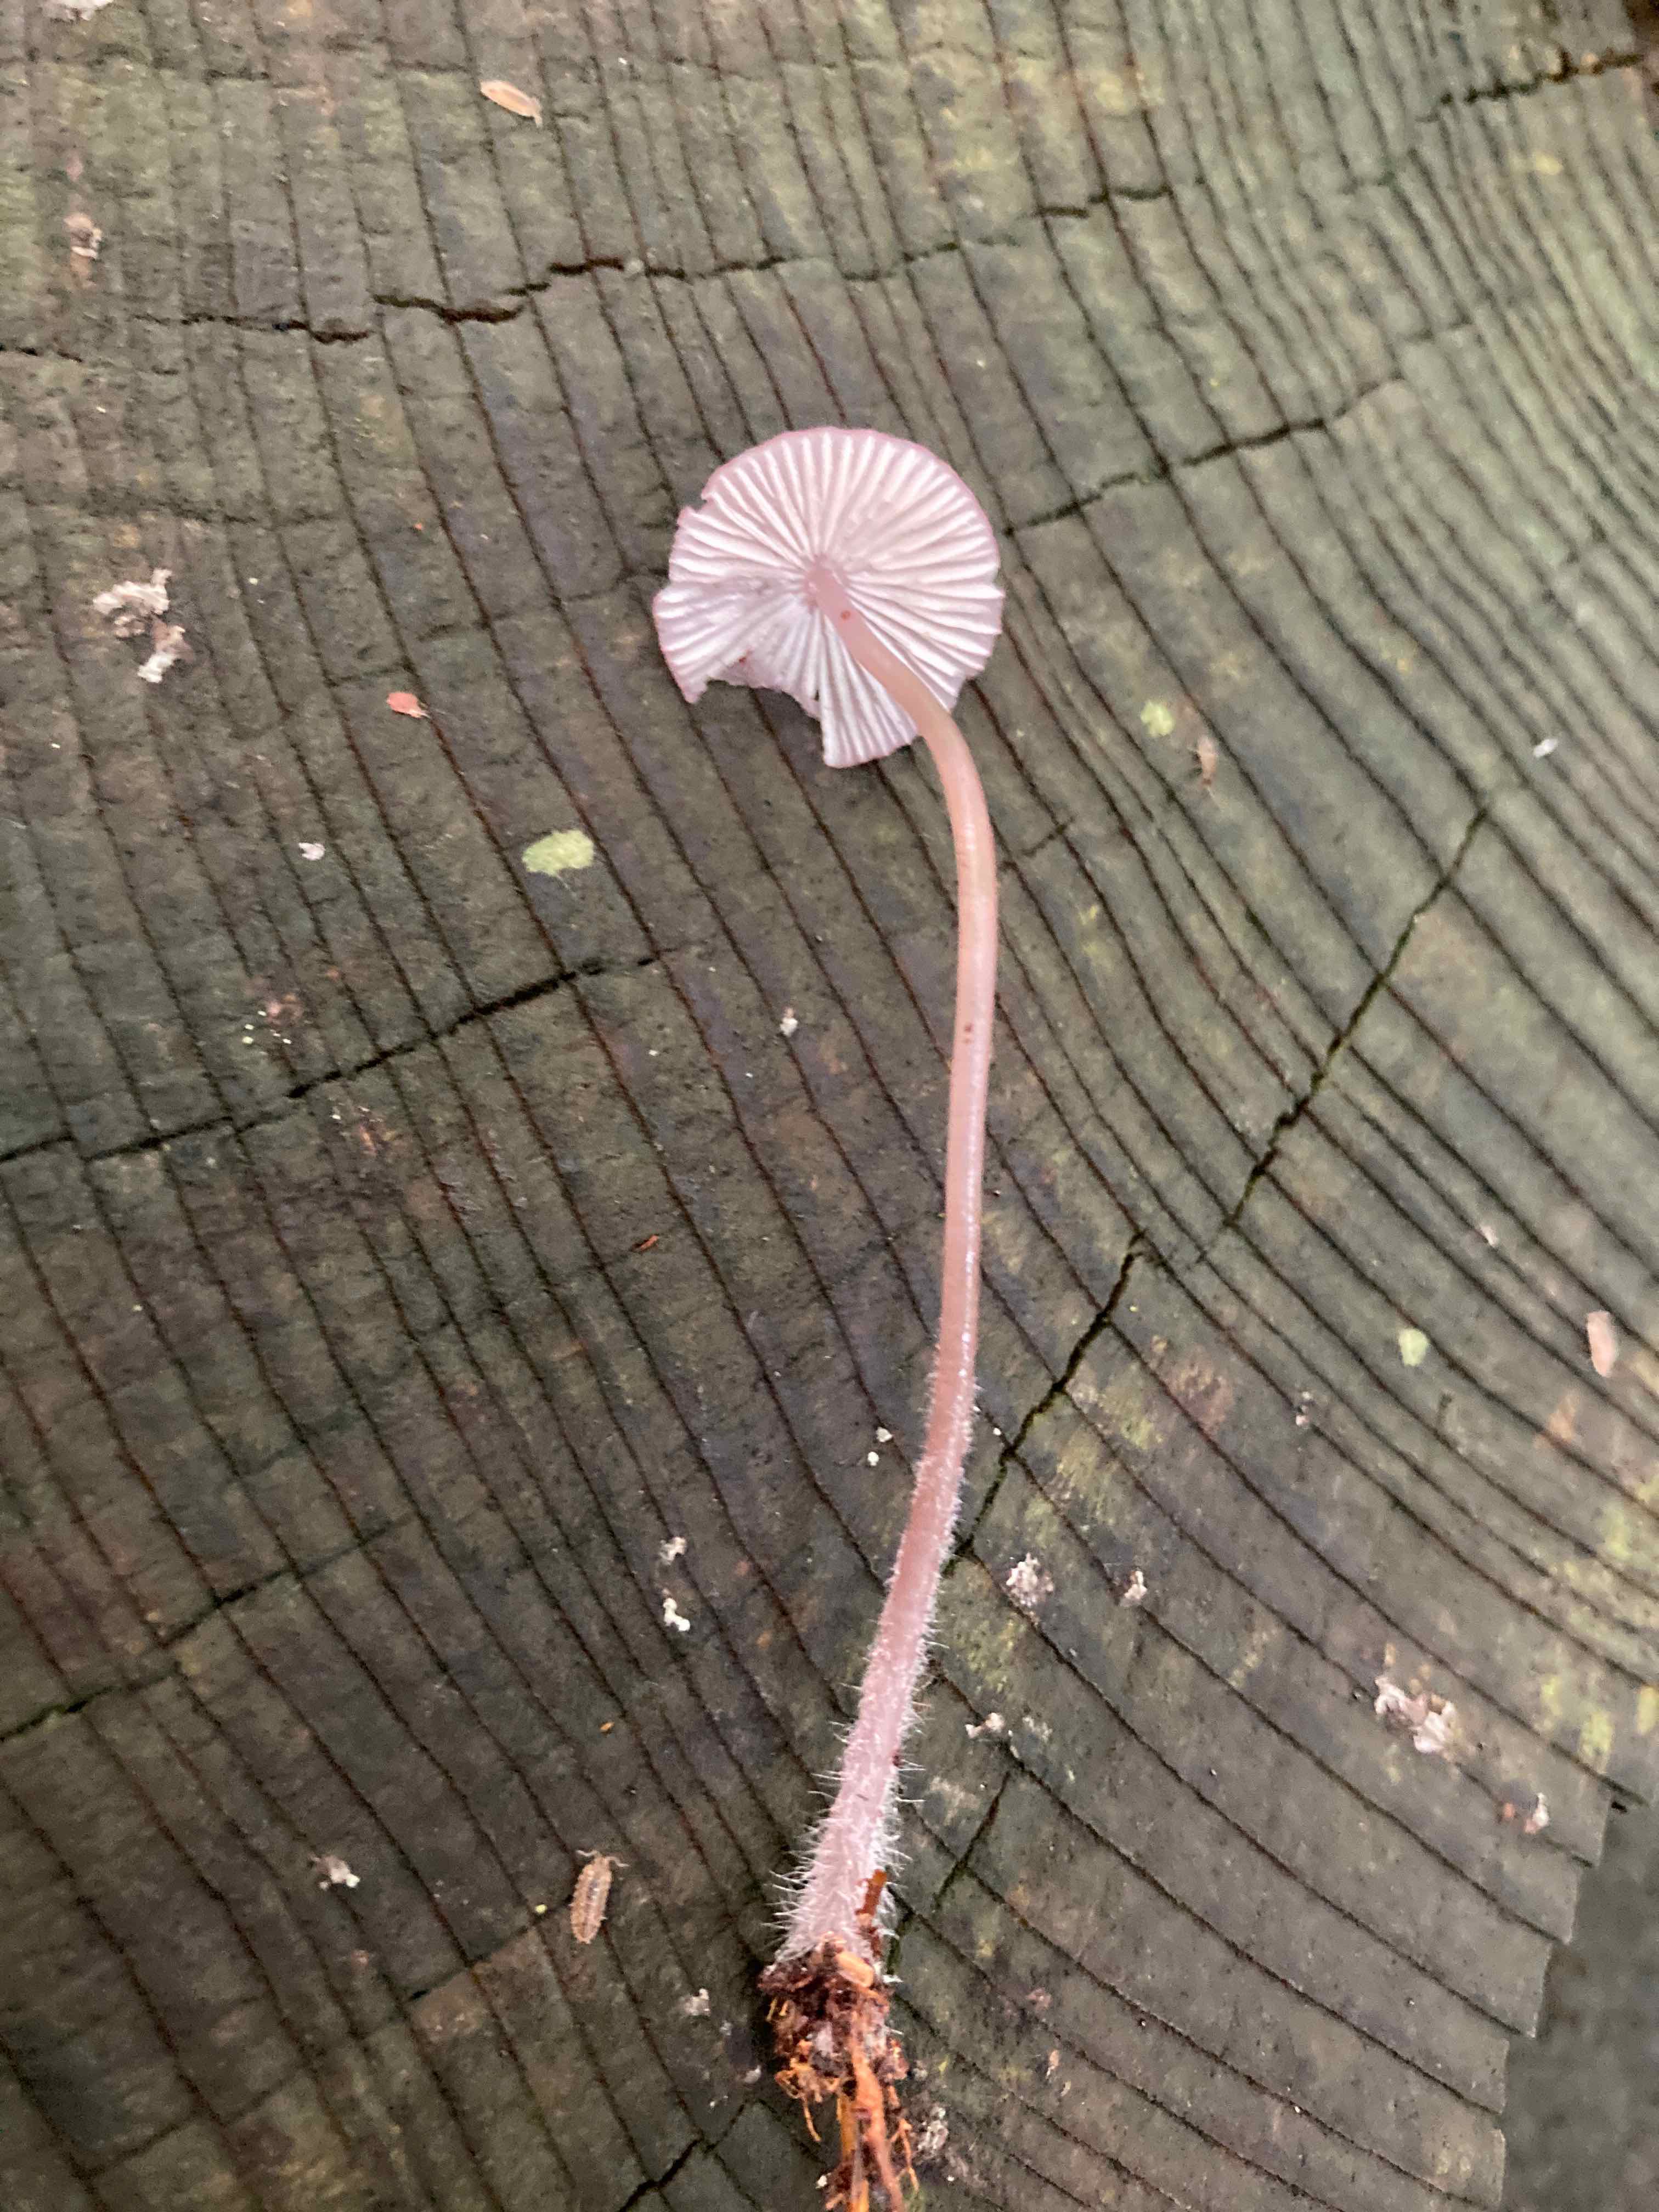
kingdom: Fungi
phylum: Basidiomycota
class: Agaricomycetes
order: Agaricales
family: Mycenaceae
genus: Mycena
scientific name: Mycena purpureofusca
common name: purpur-huesvamp
